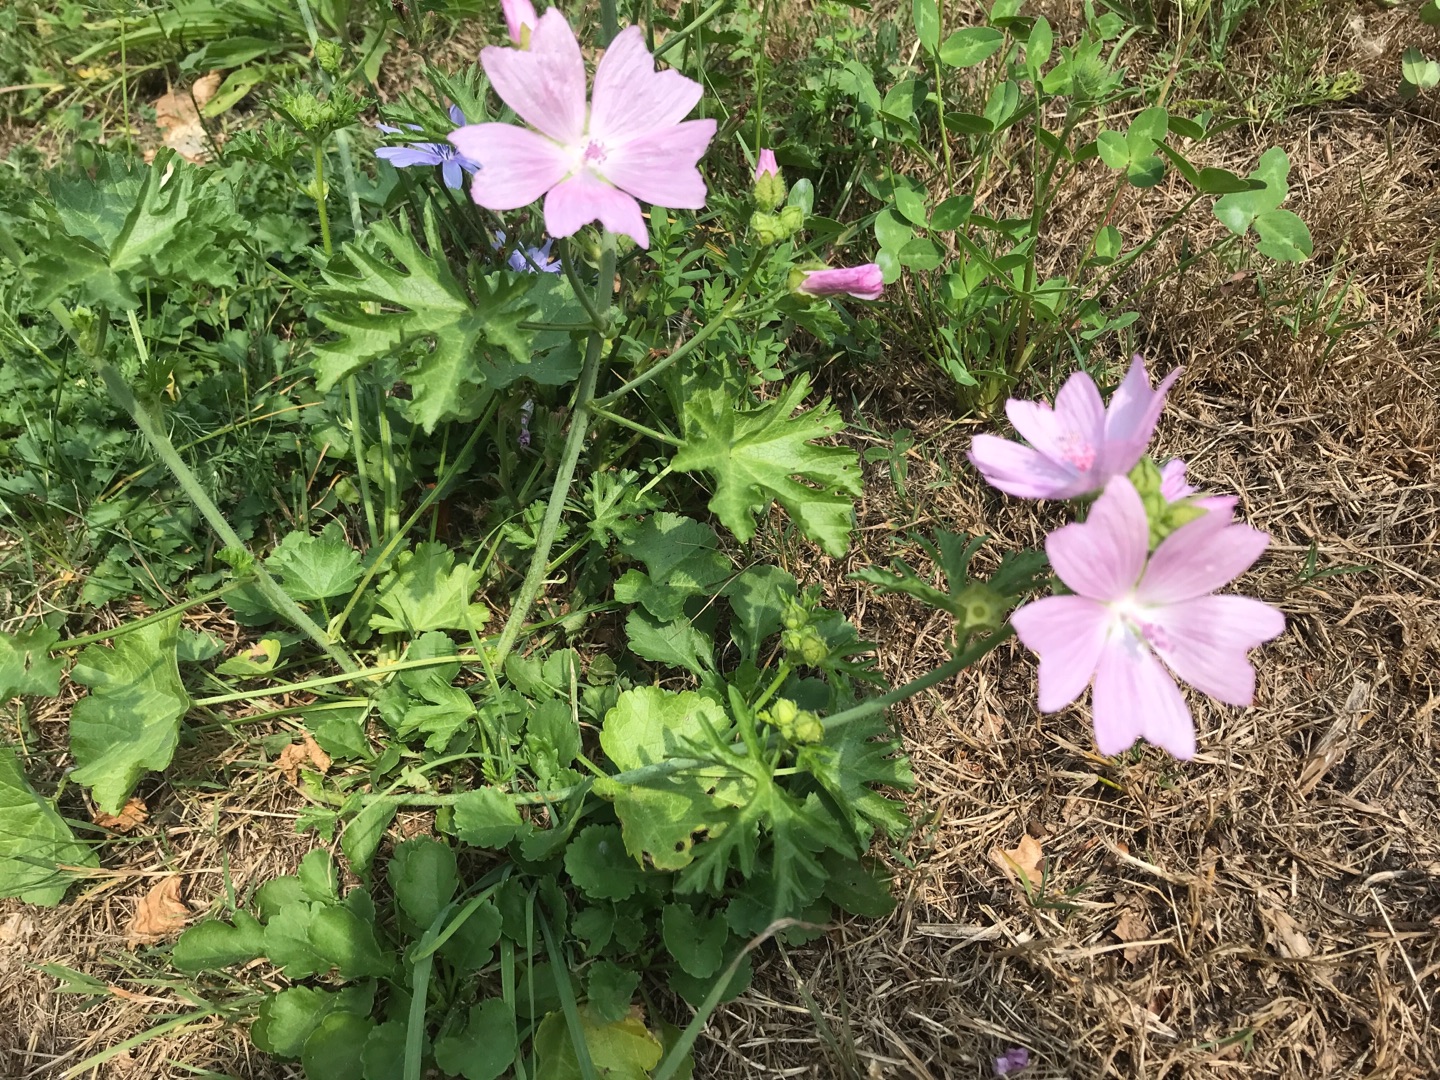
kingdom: Plantae
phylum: Tracheophyta
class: Magnoliopsida
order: Malvales
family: Malvaceae
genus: Malva
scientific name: Malva moschata
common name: Moskus-katost
